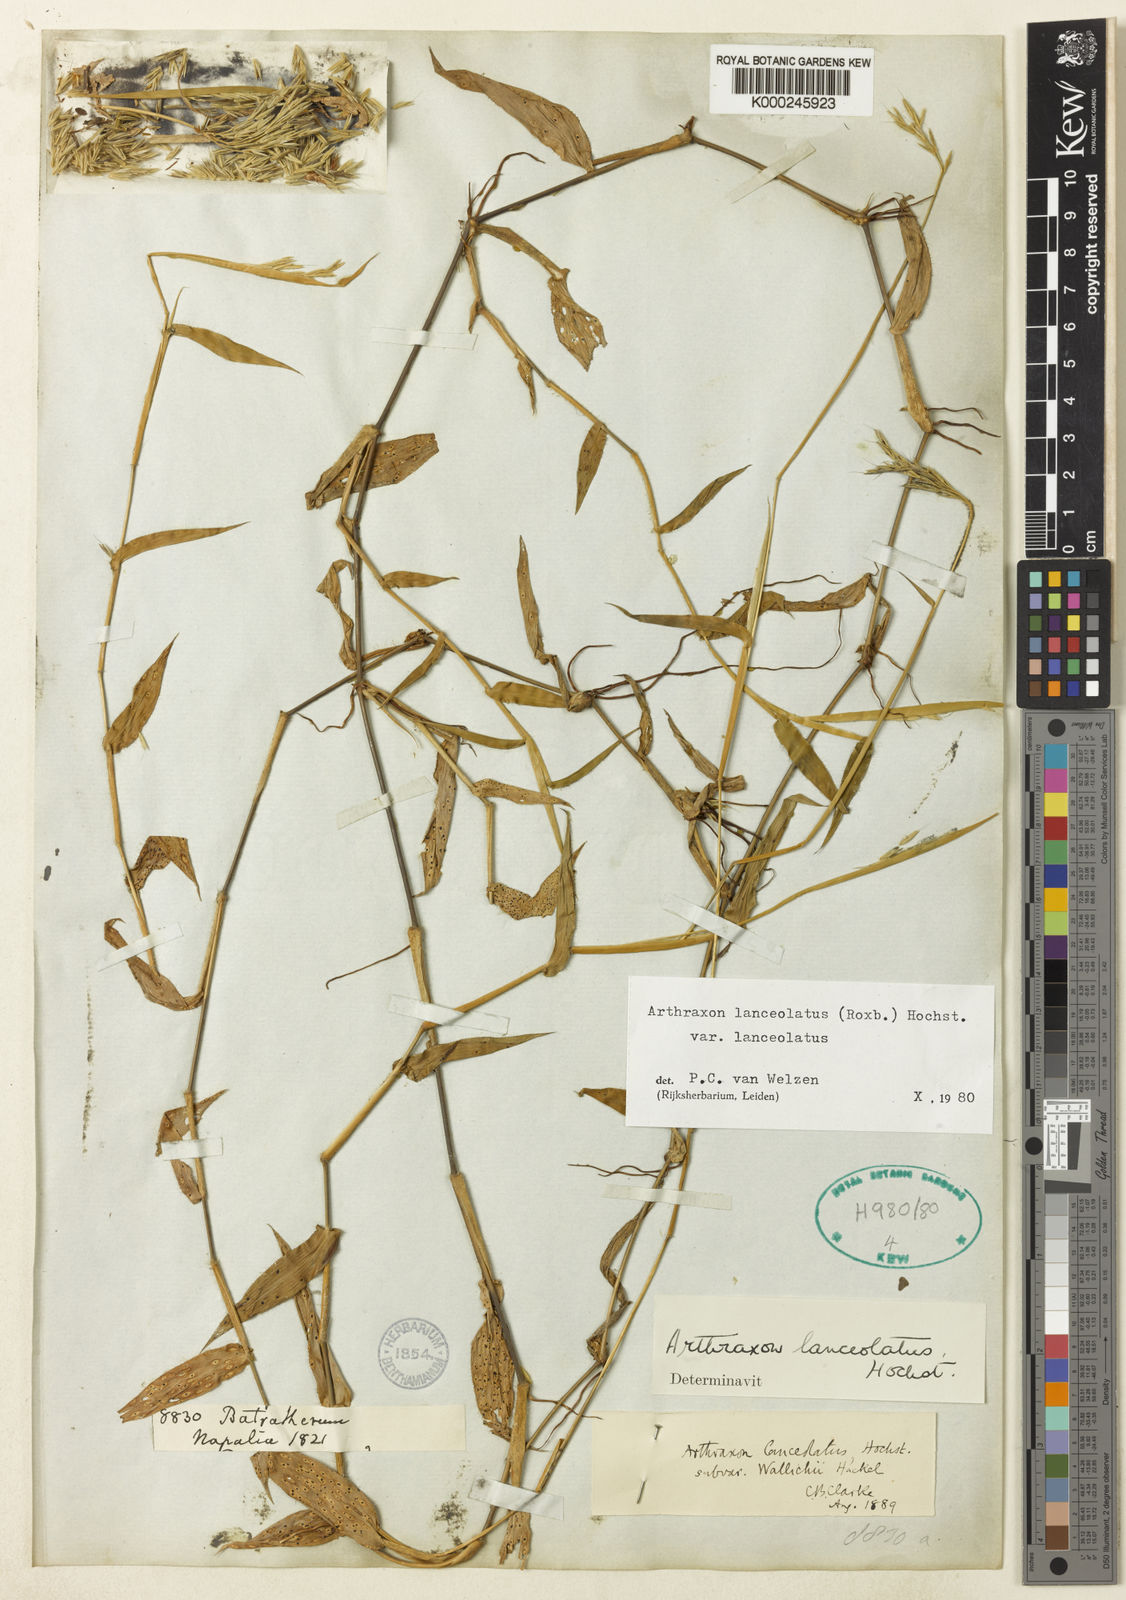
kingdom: Plantae
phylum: Tracheophyta
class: Liliopsida
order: Poales
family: Poaceae
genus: Arthraxon
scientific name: Arthraxon lanceolatus
